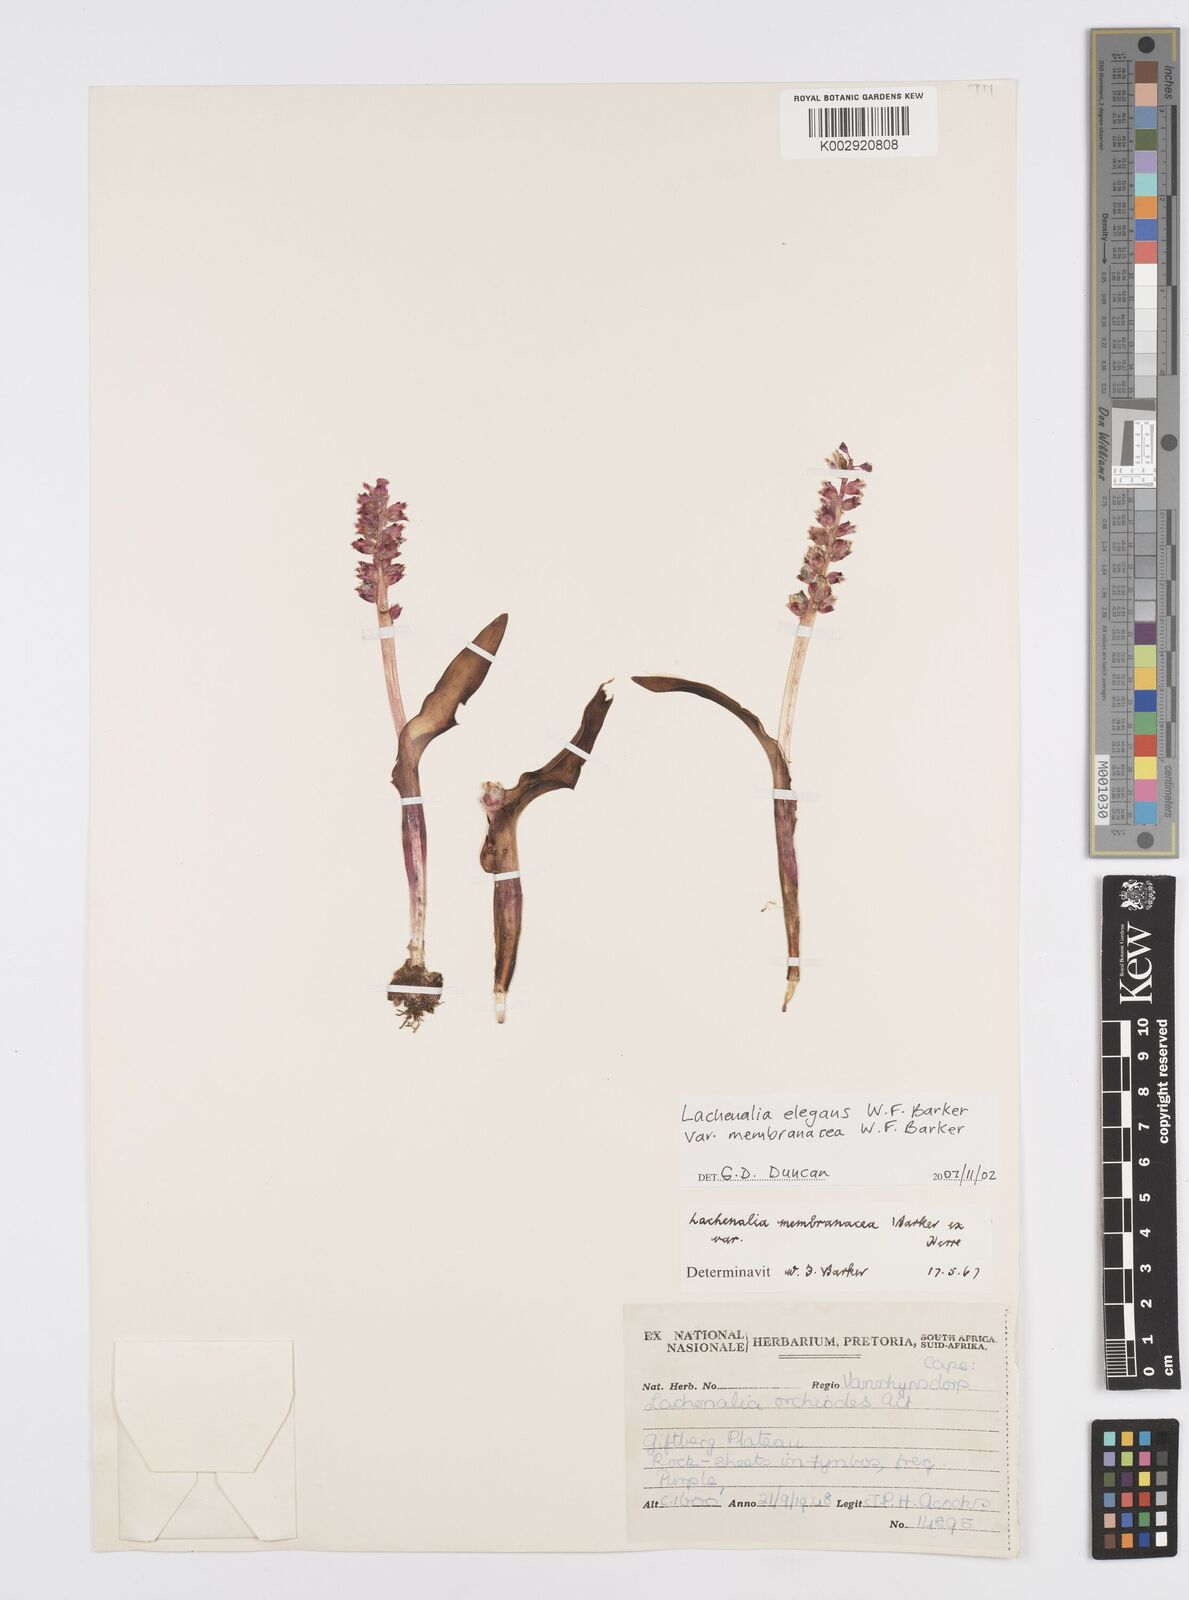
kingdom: Plantae
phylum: Tracheophyta
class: Liliopsida
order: Asparagales
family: Asparagaceae
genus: Lachenalia
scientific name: Lachenalia membranacea
